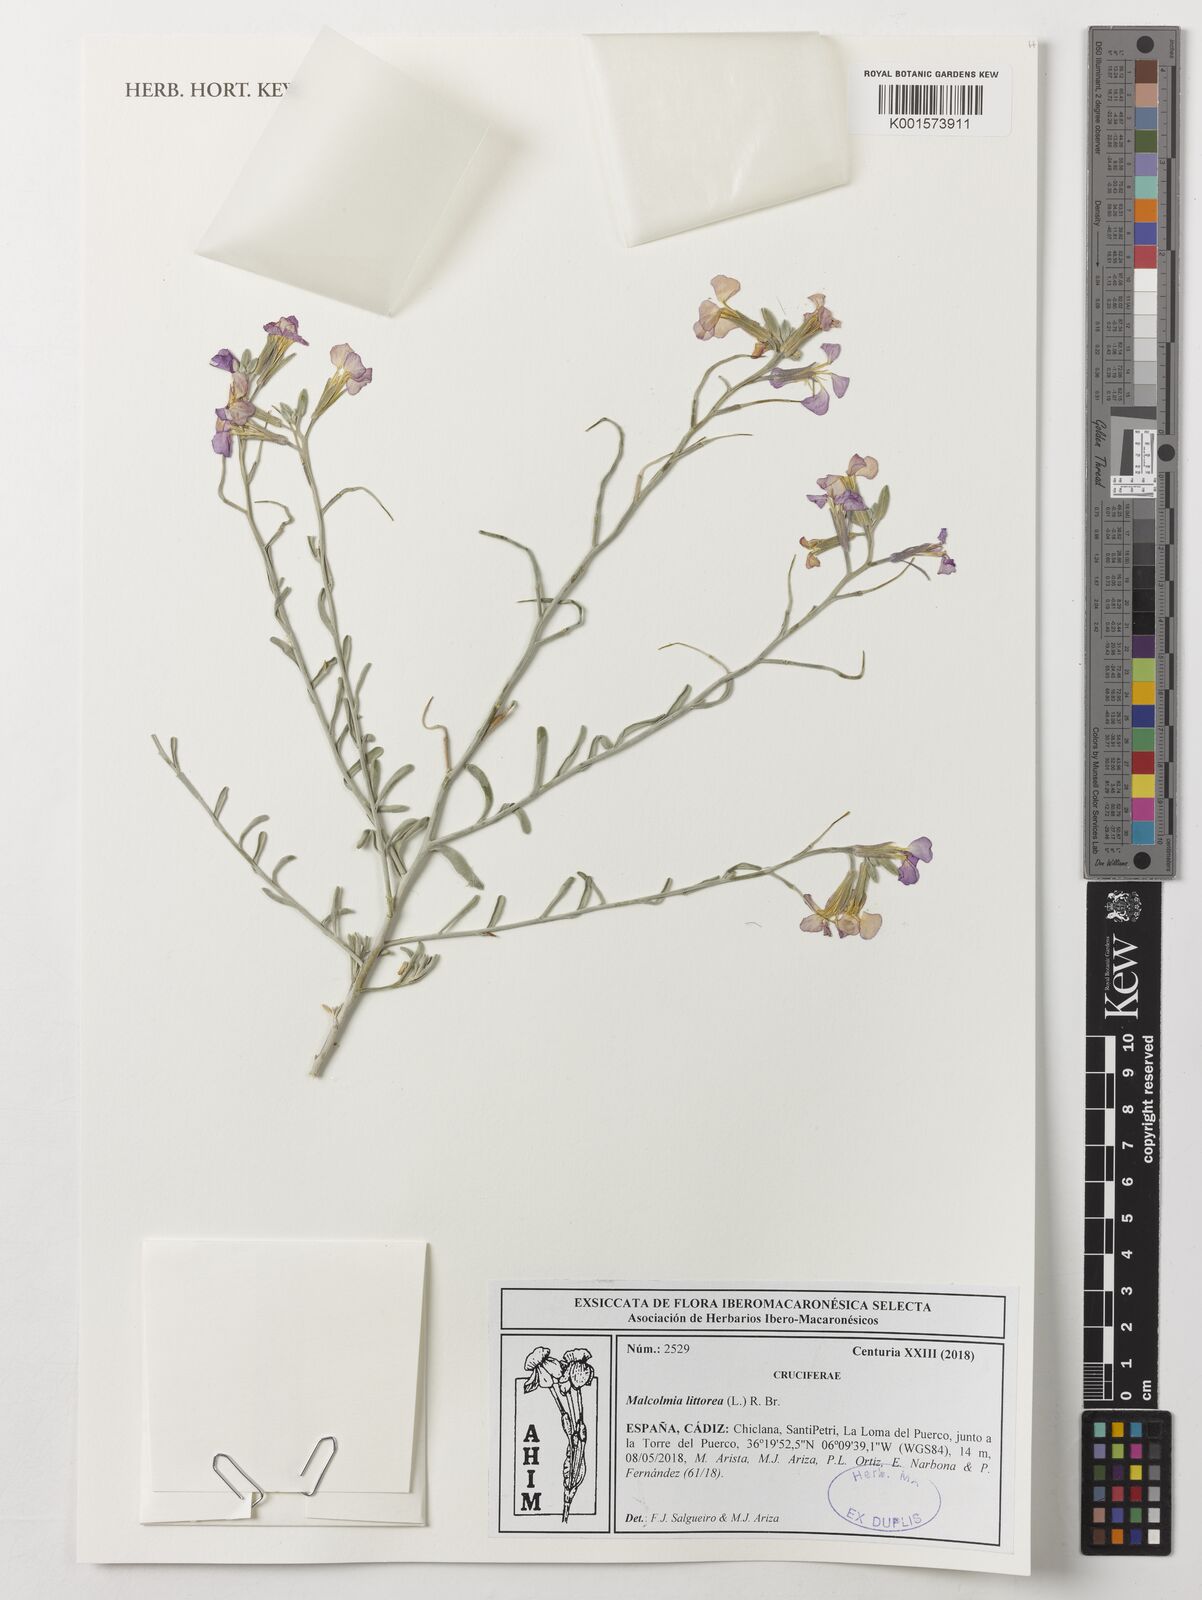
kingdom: Plantae
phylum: Tracheophyta
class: Magnoliopsida
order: Brassicales
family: Brassicaceae
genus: Marcuskochia
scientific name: Marcuskochia littorea
